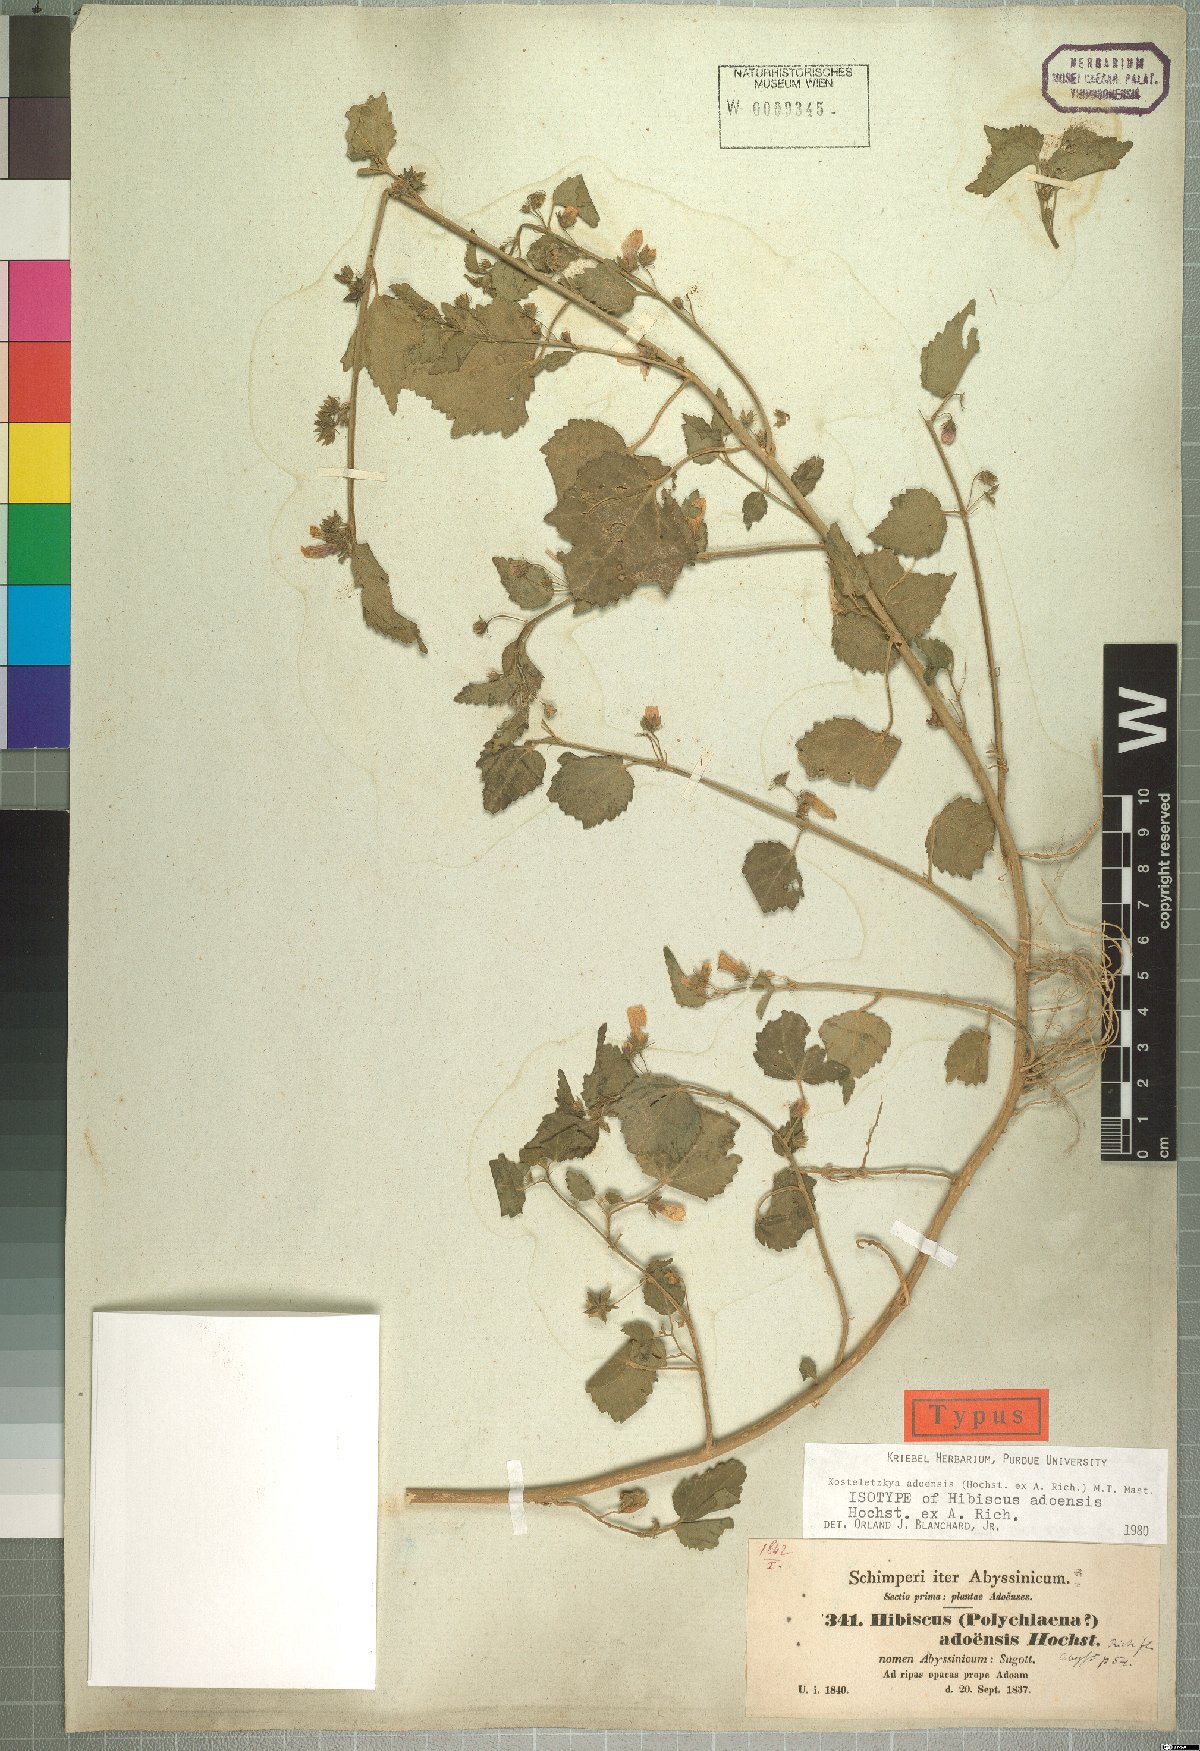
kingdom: Plantae
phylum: Tracheophyta
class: Magnoliopsida
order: Malvales
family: Malvaceae
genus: Kosteletzkya
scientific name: Kosteletzkya adoensis
